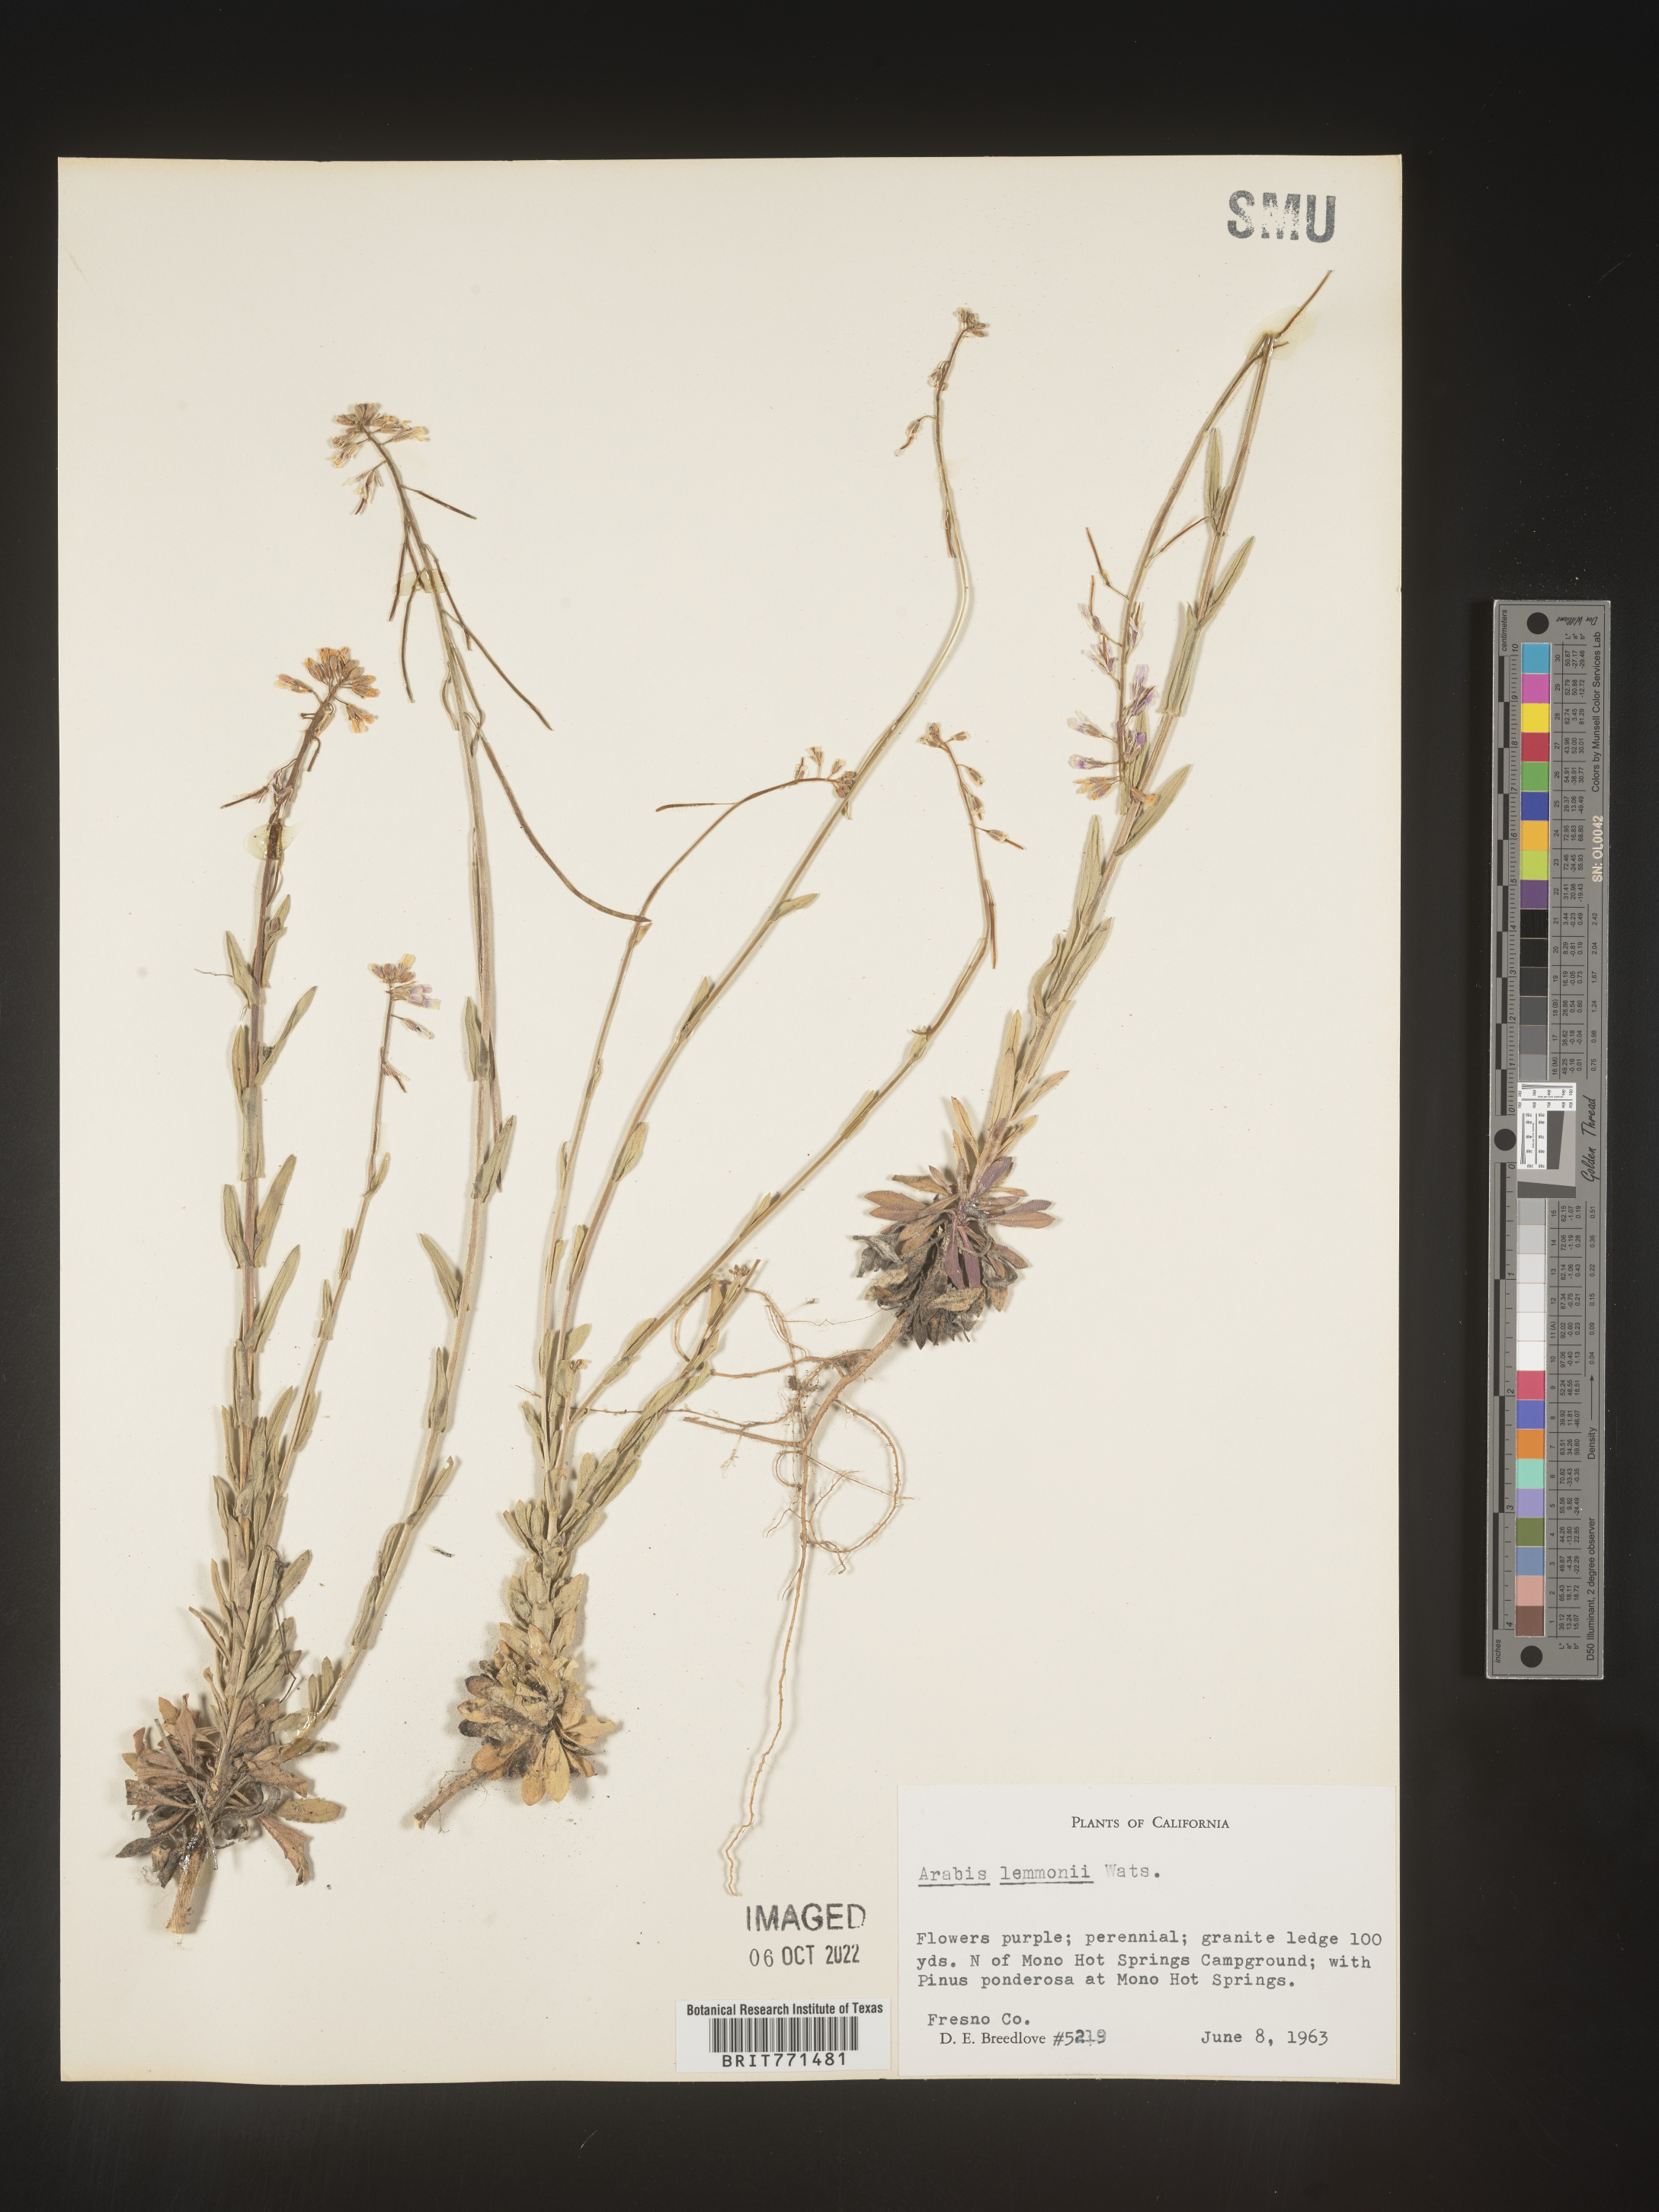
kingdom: Plantae
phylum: Tracheophyta
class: Magnoliopsida
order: Brassicales
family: Brassicaceae
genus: Arabis
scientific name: Arabis
